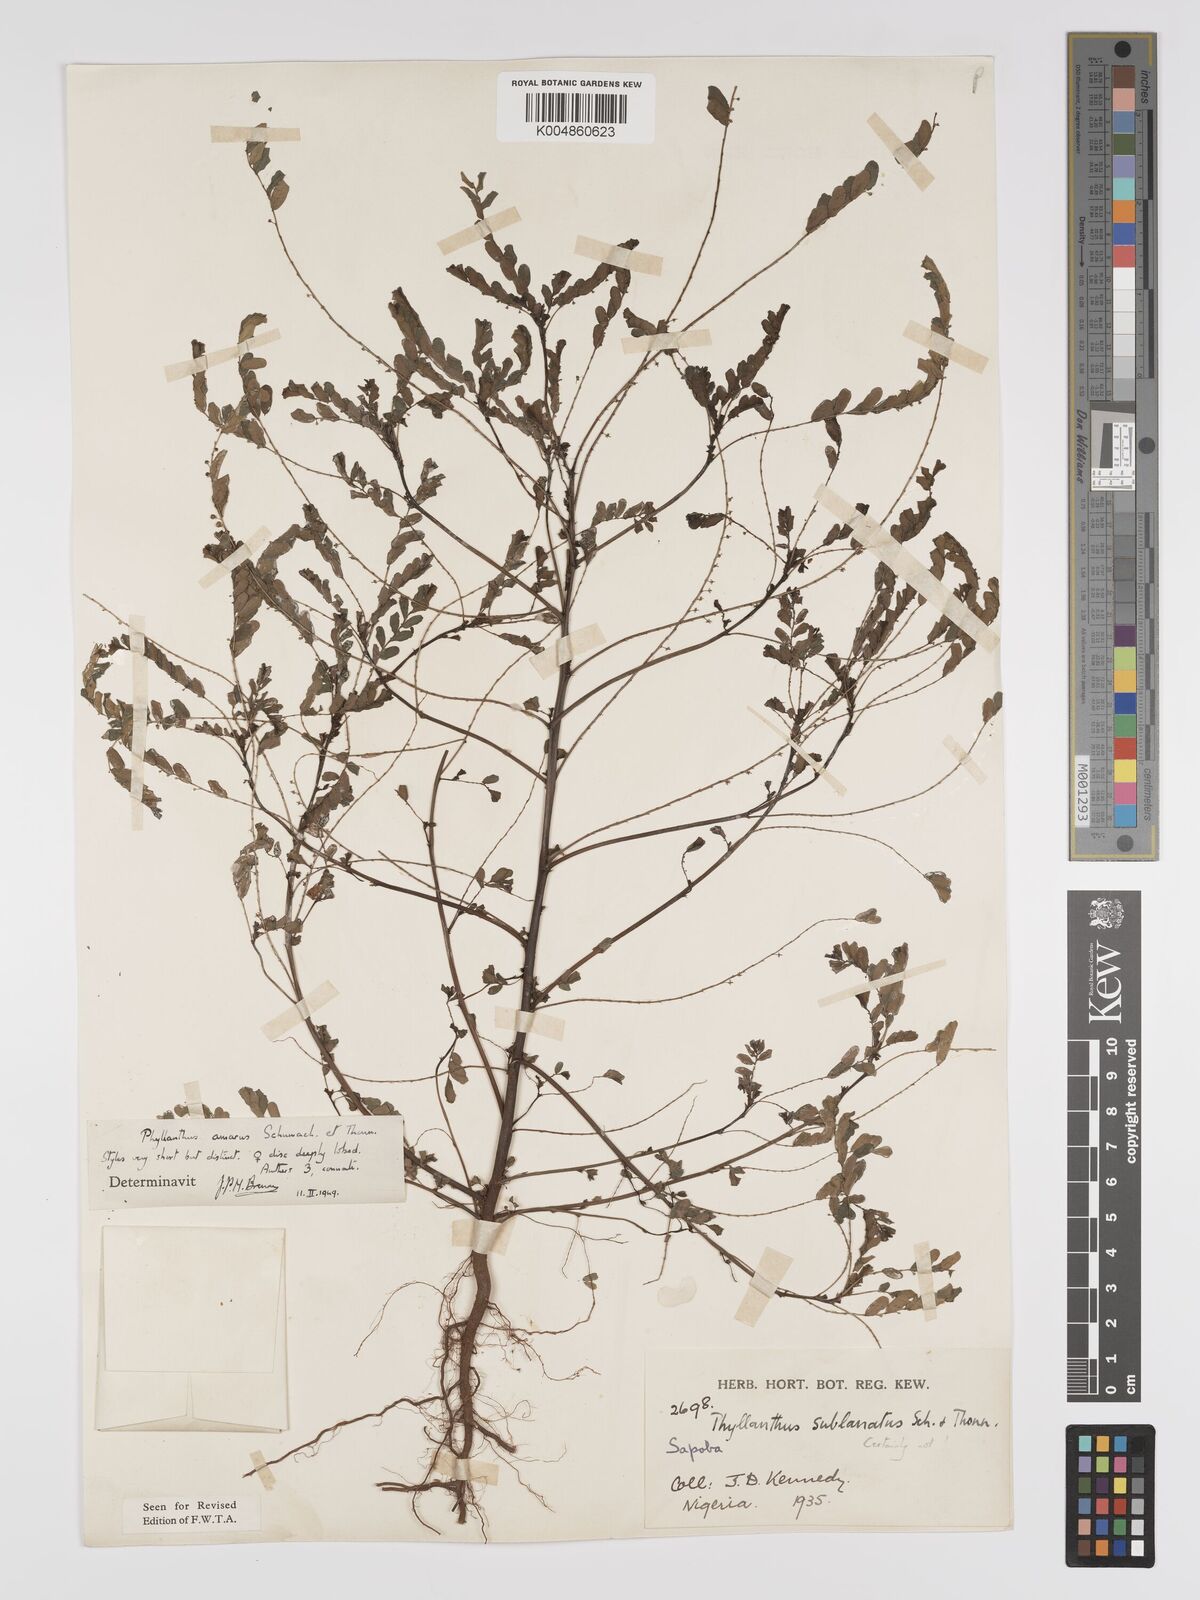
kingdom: Plantae
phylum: Tracheophyta
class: Magnoliopsida
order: Malpighiales
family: Phyllanthaceae
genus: Phyllanthus
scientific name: Phyllanthus amarus
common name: Carry me seed
